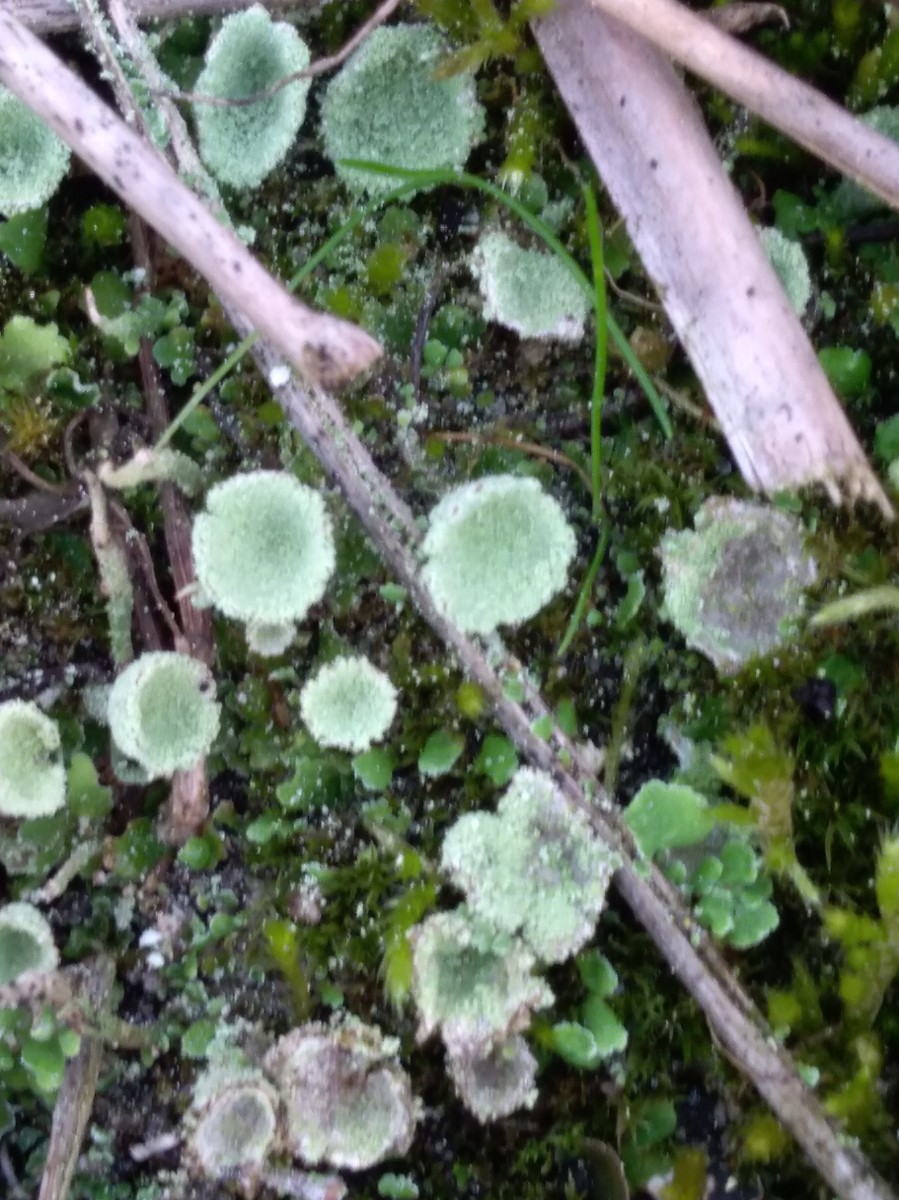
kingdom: Fungi
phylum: Ascomycota
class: Lecanoromycetes
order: Lecanorales
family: Cladoniaceae
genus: Cladonia
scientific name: Cladonia
